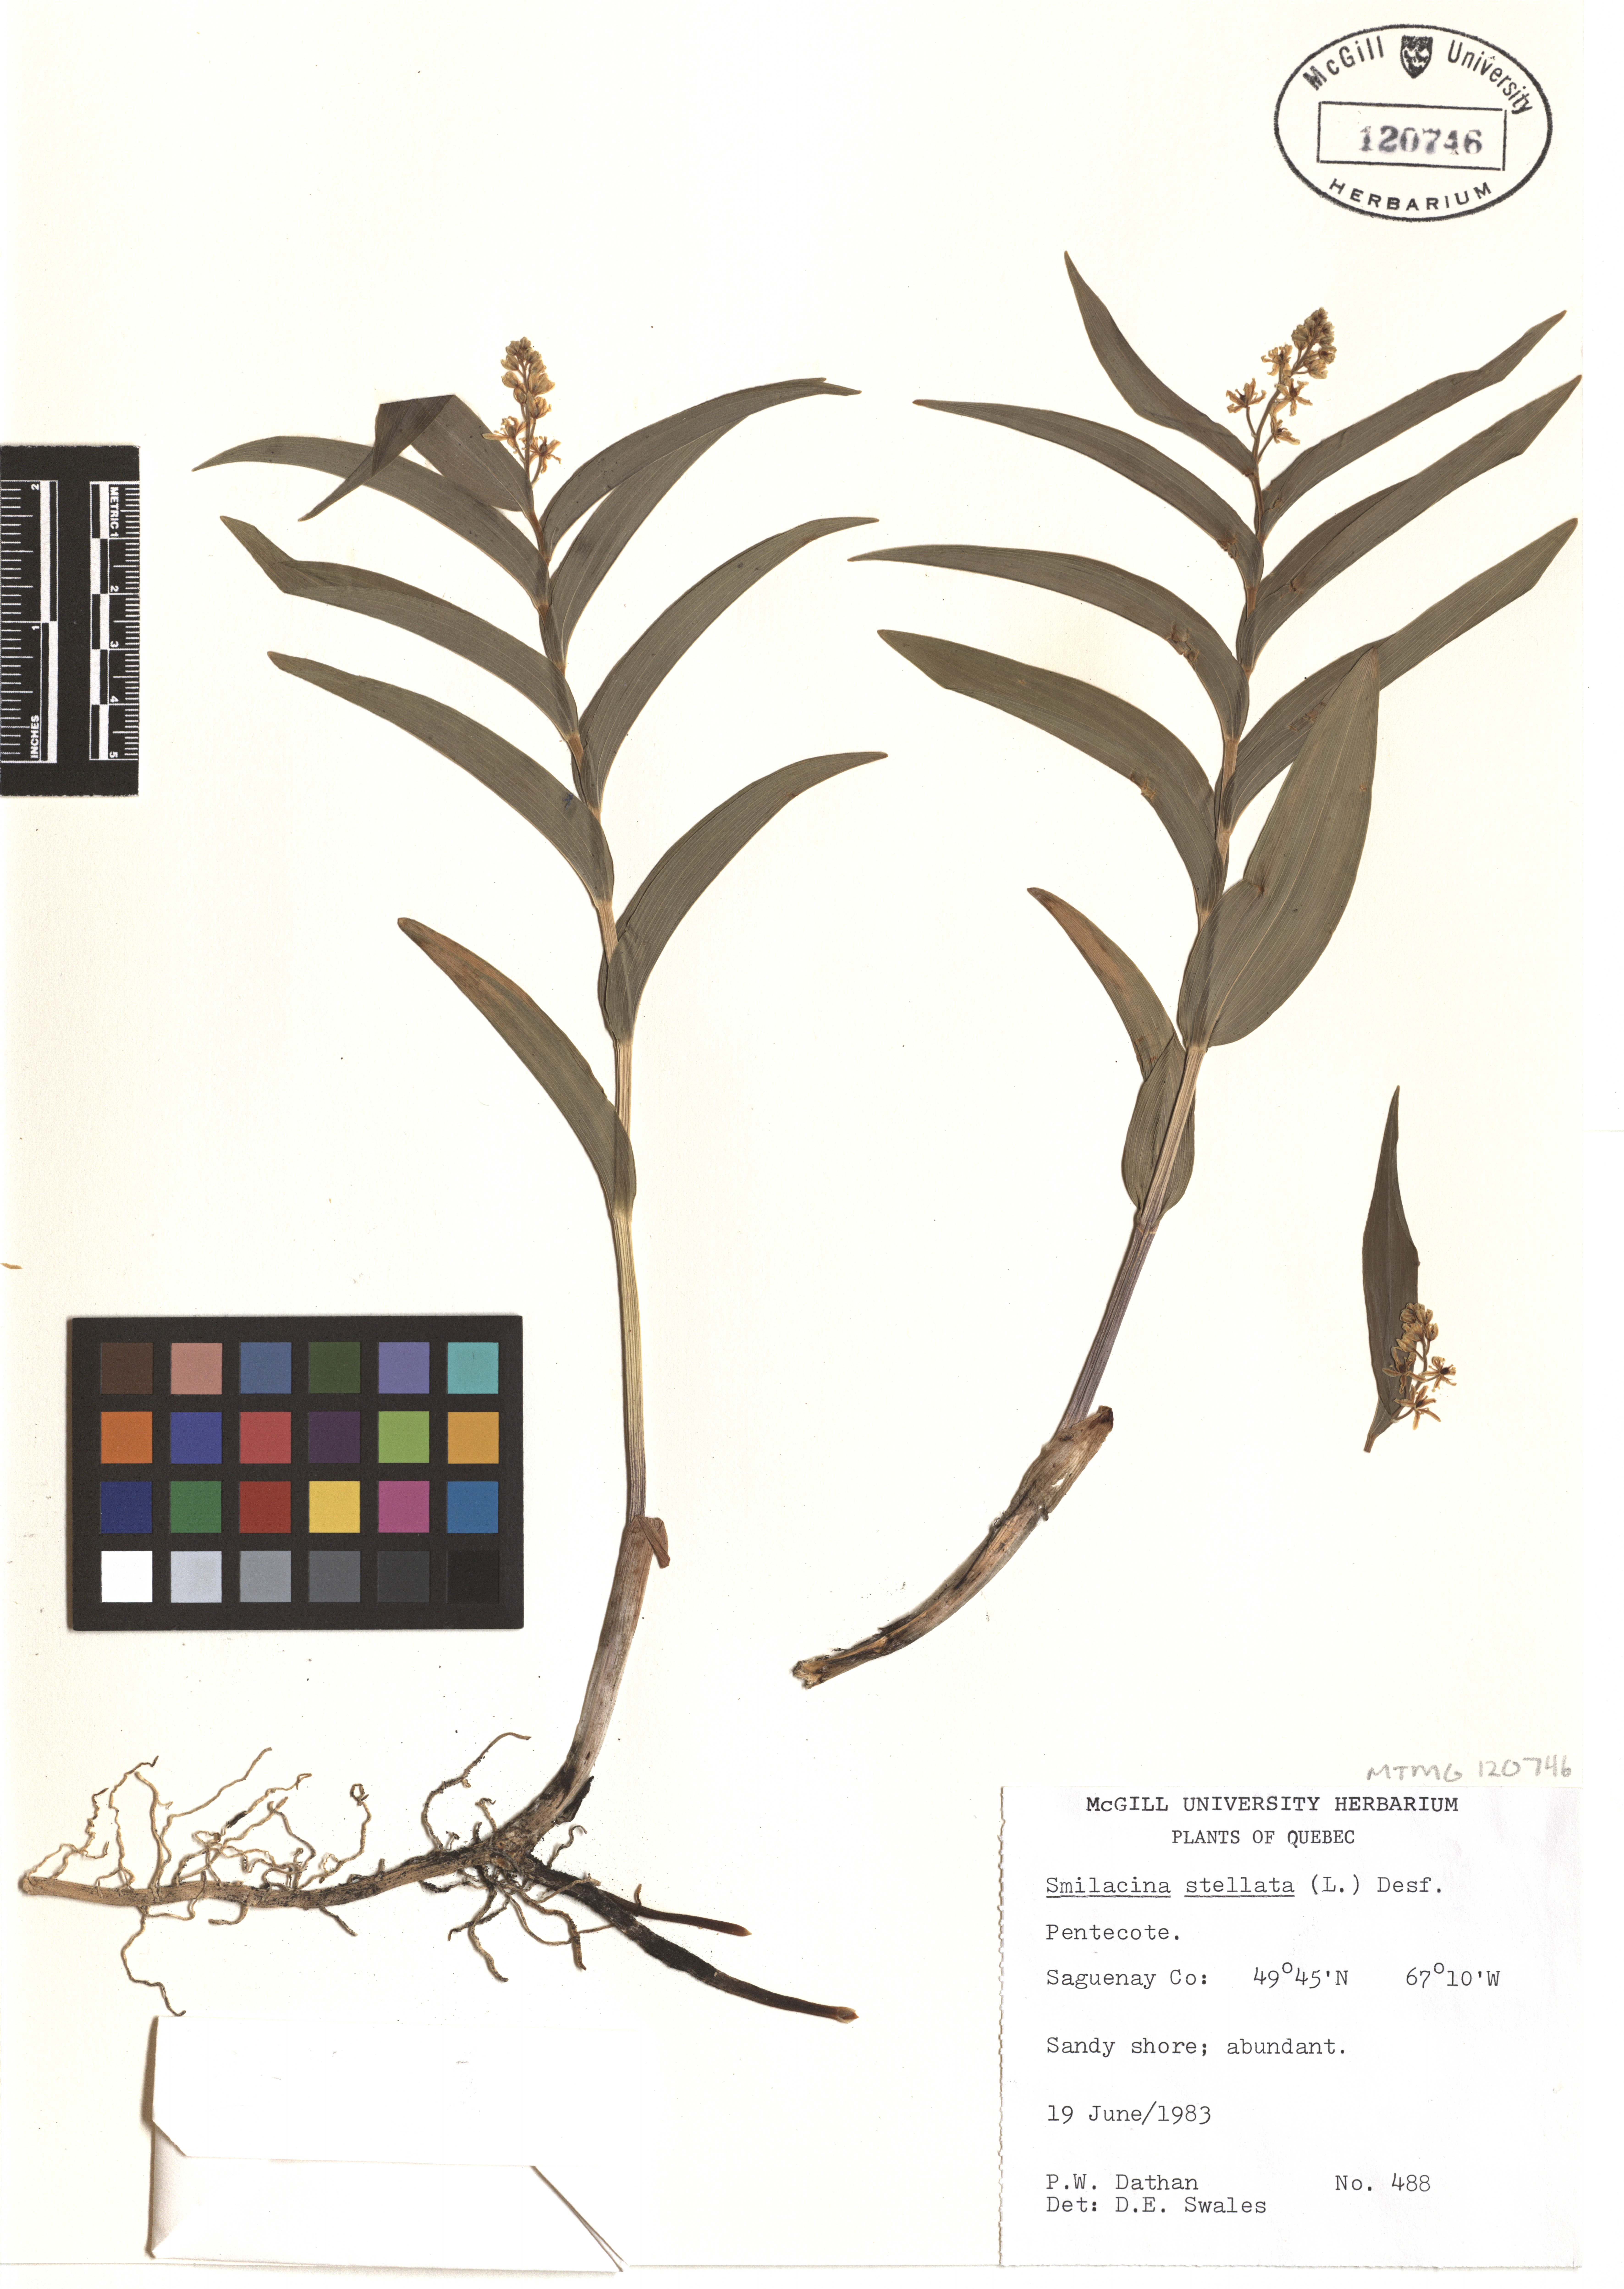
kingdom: Plantae
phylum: Tracheophyta
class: Liliopsida
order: Asparagales
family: Asparagaceae
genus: Maianthemum
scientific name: Maianthemum stellatum
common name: Little false solomon's seal
